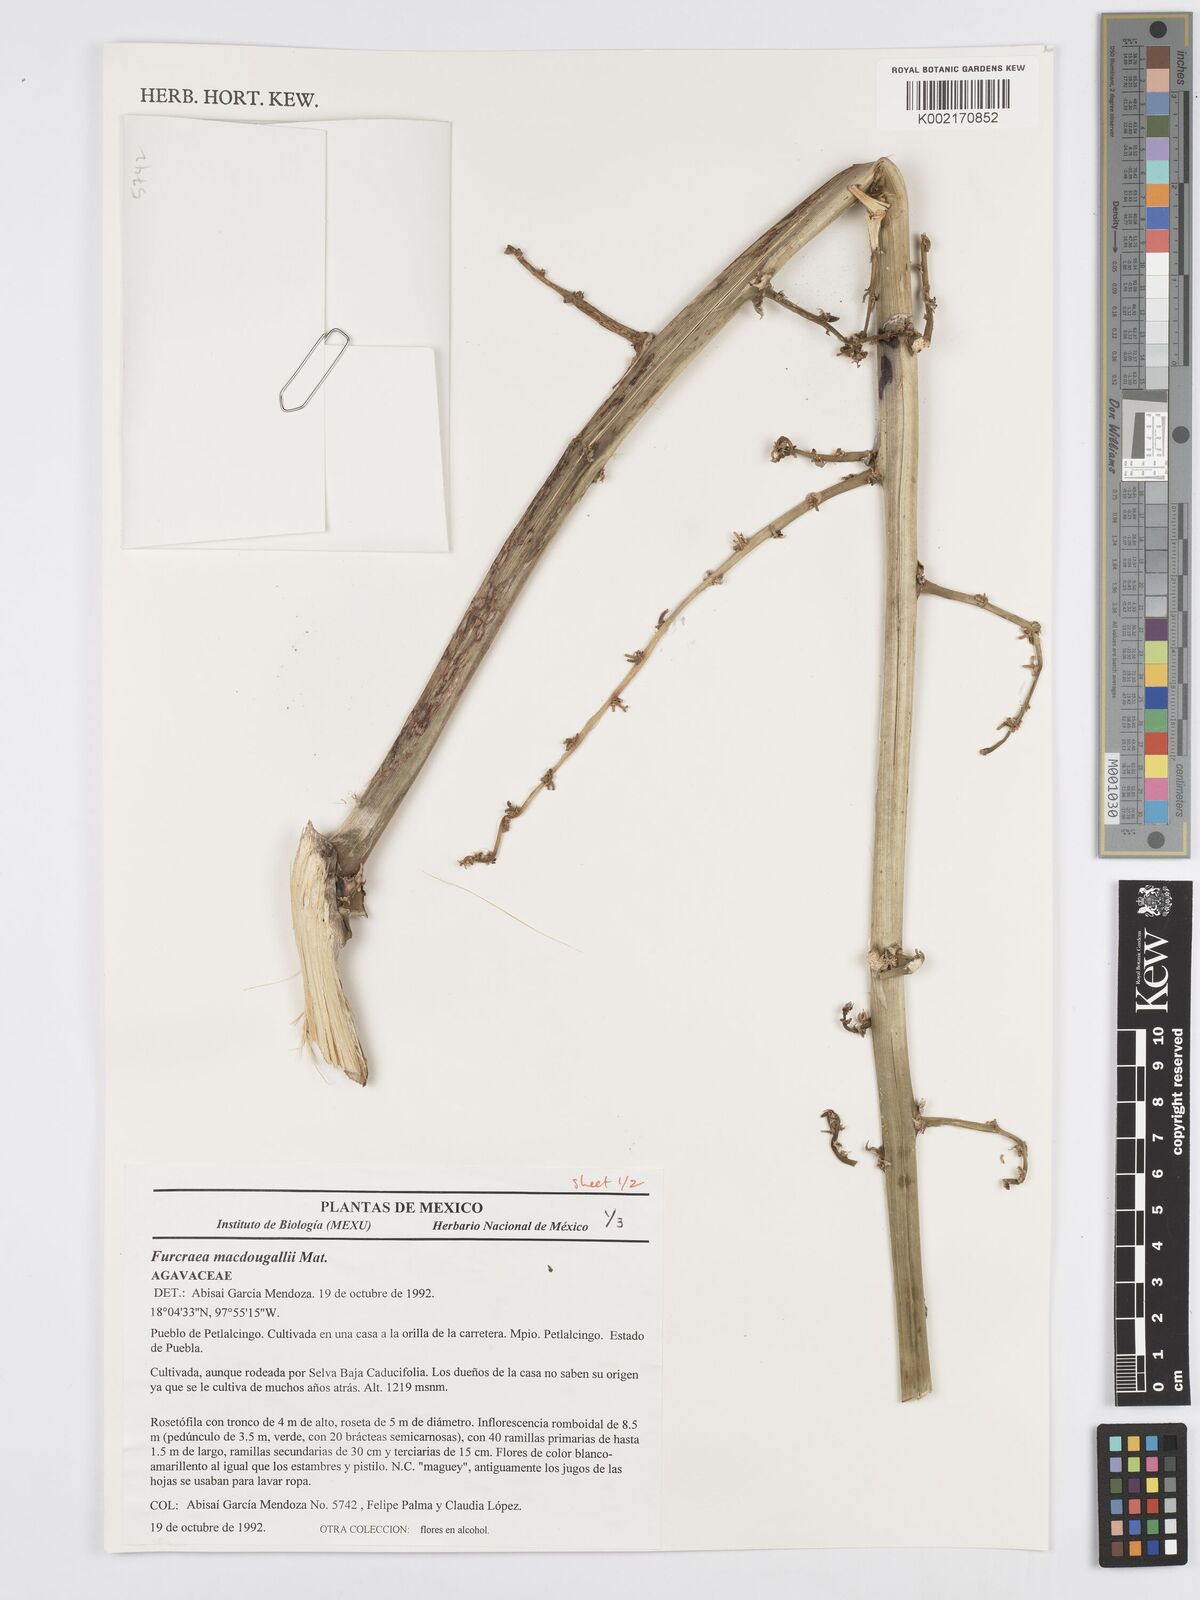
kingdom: Plantae
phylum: Tracheophyta
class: Liliopsida
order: Asparagales
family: Asparagaceae
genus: Furcraea
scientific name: Furcraea macdougallii
